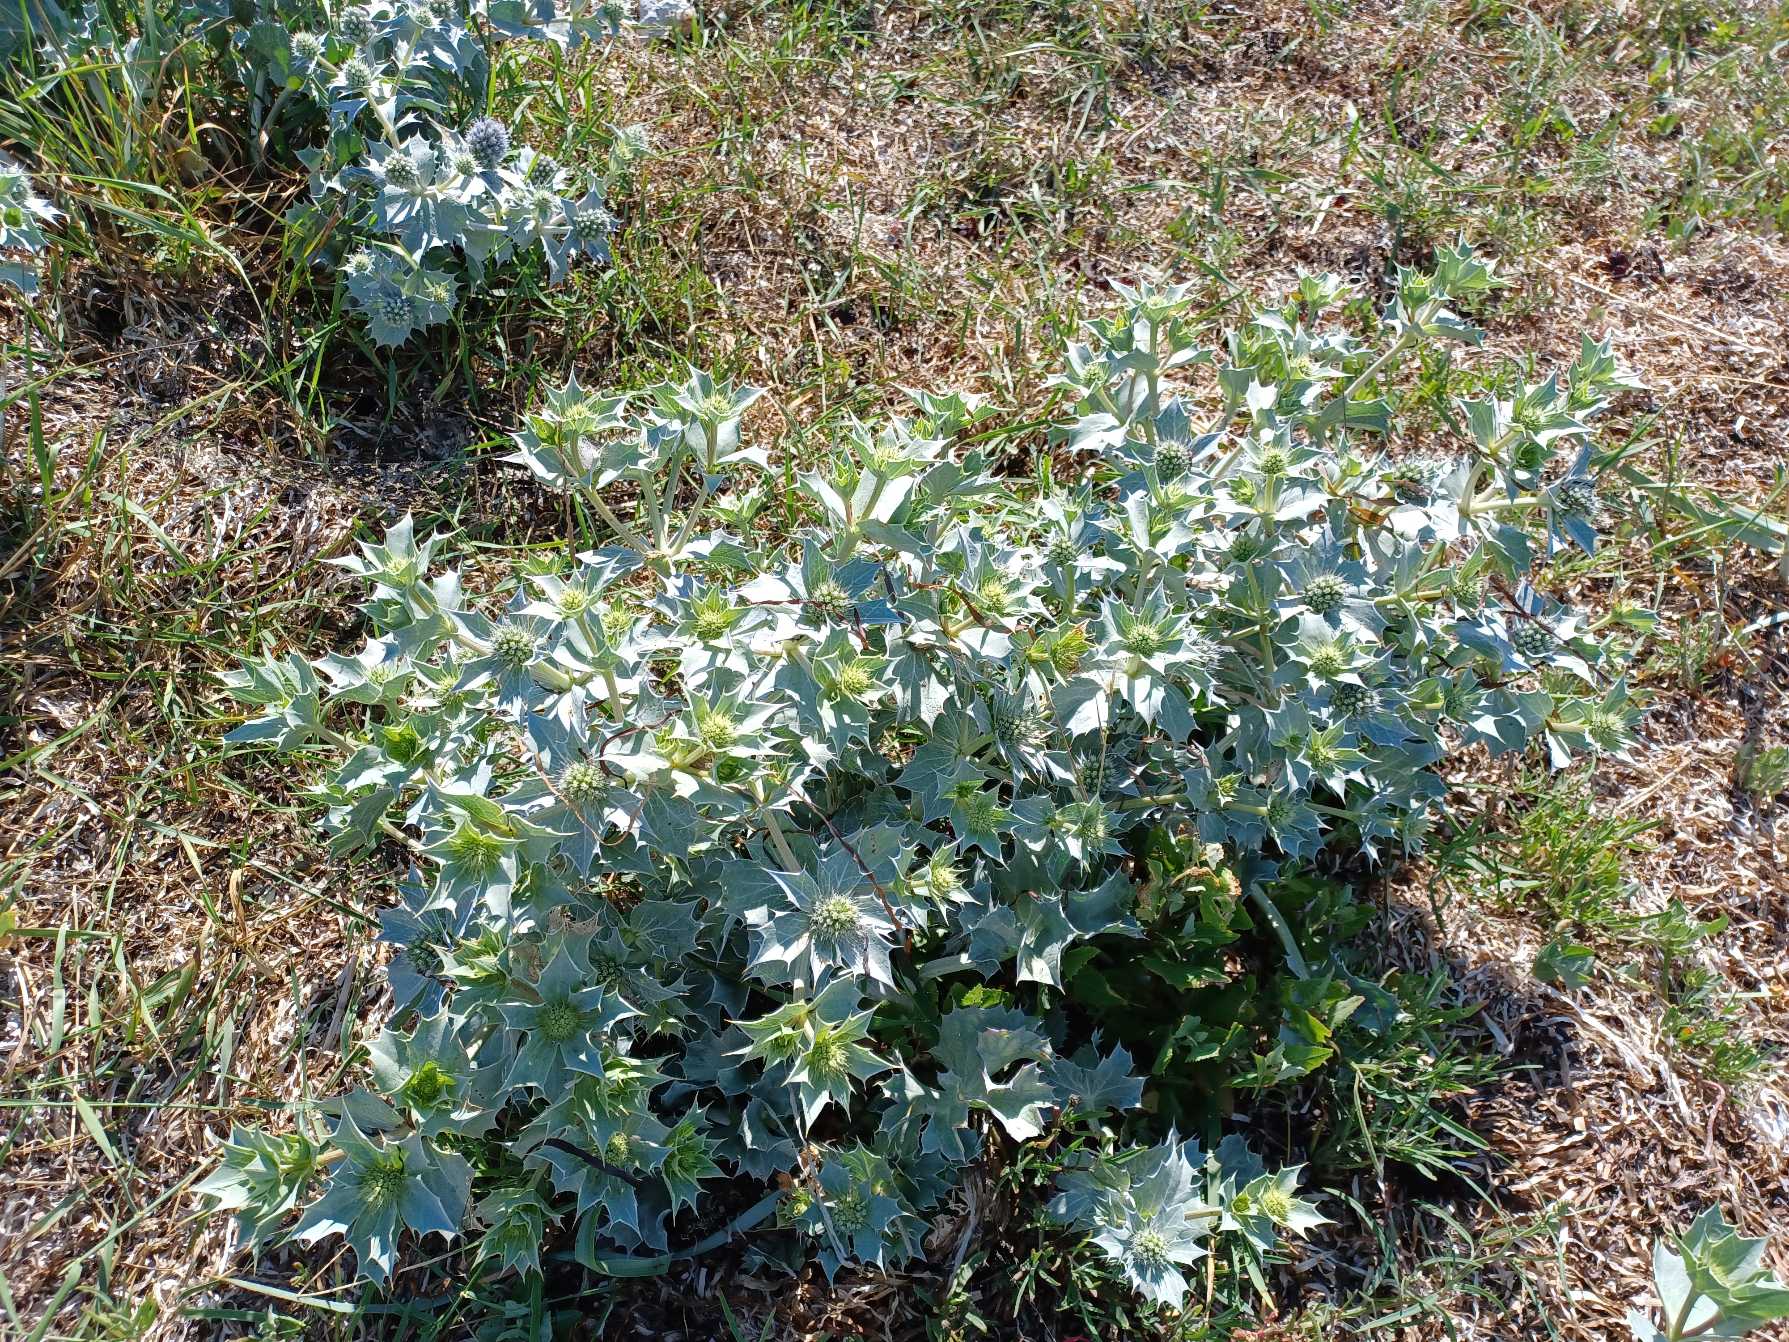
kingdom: Plantae
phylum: Tracheophyta
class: Magnoliopsida
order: Apiales
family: Apiaceae
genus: Eryngium
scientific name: Eryngium maritimum
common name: Strand-mandstro
